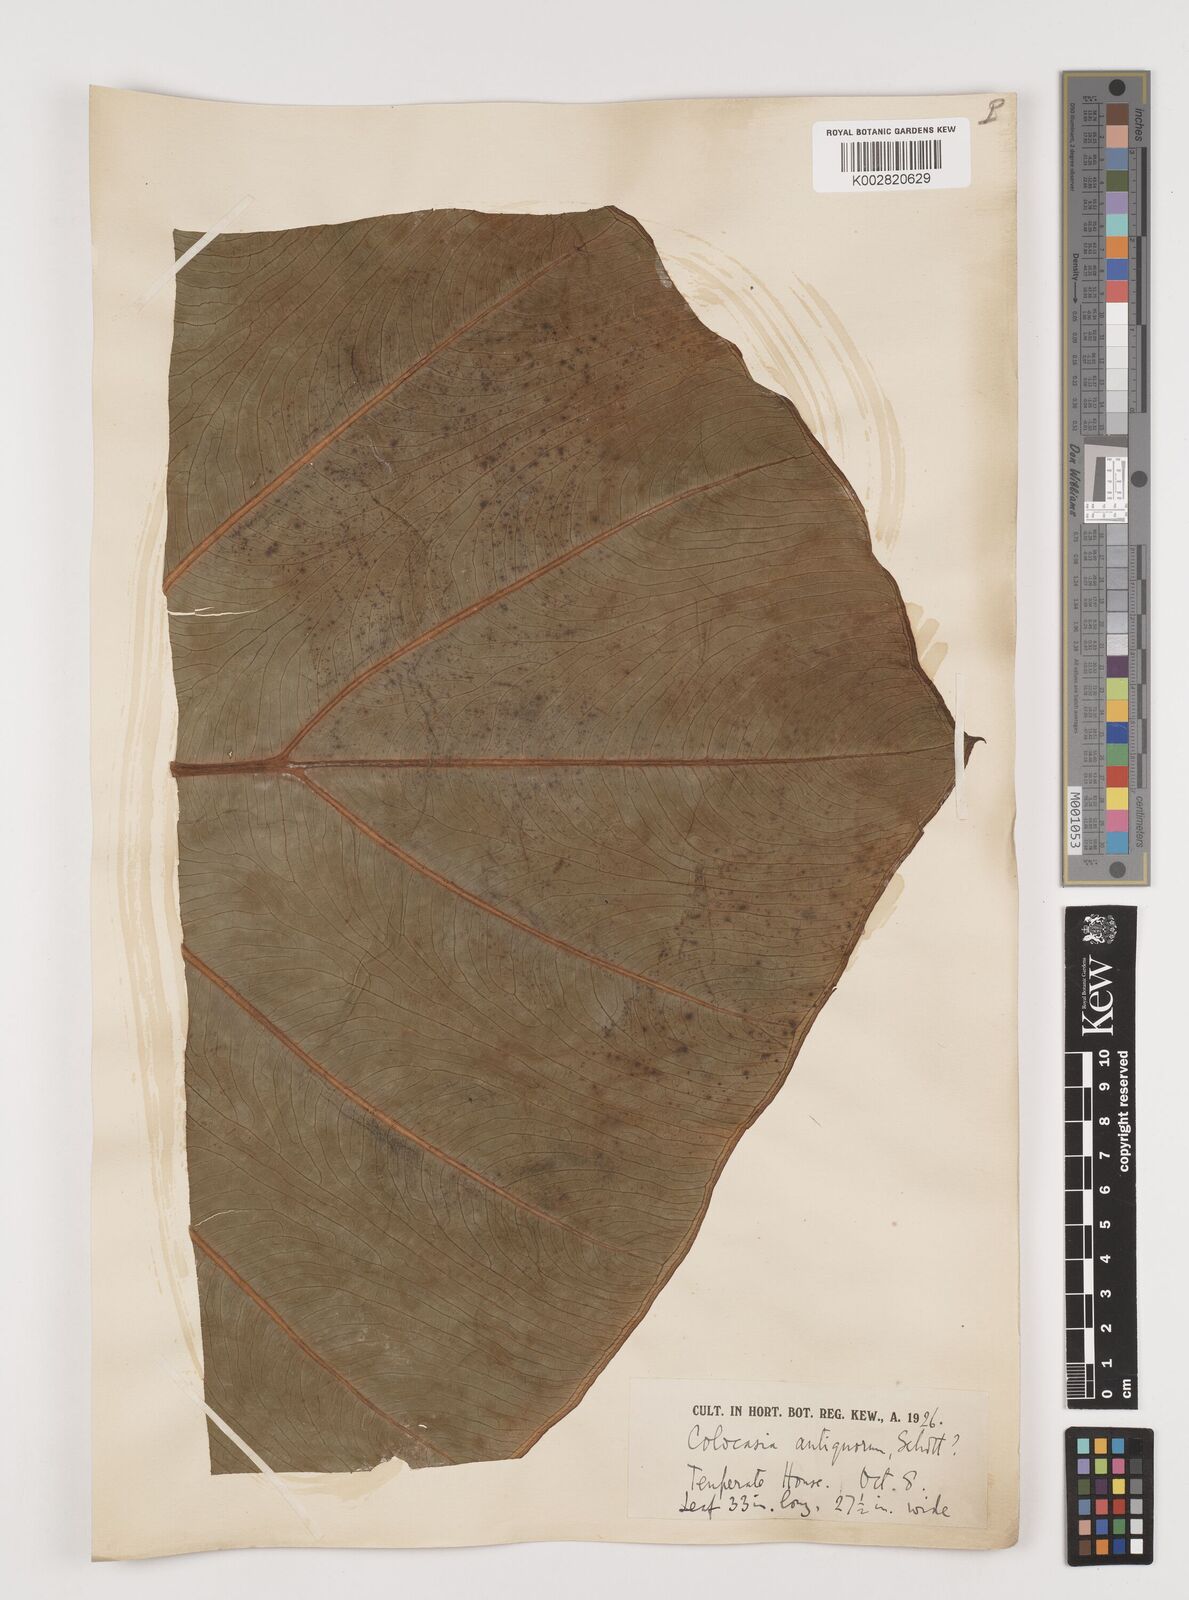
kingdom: Plantae
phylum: Tracheophyta
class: Liliopsida
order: Alismatales
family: Araceae
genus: Leucocasia
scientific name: Leucocasia gigantea
